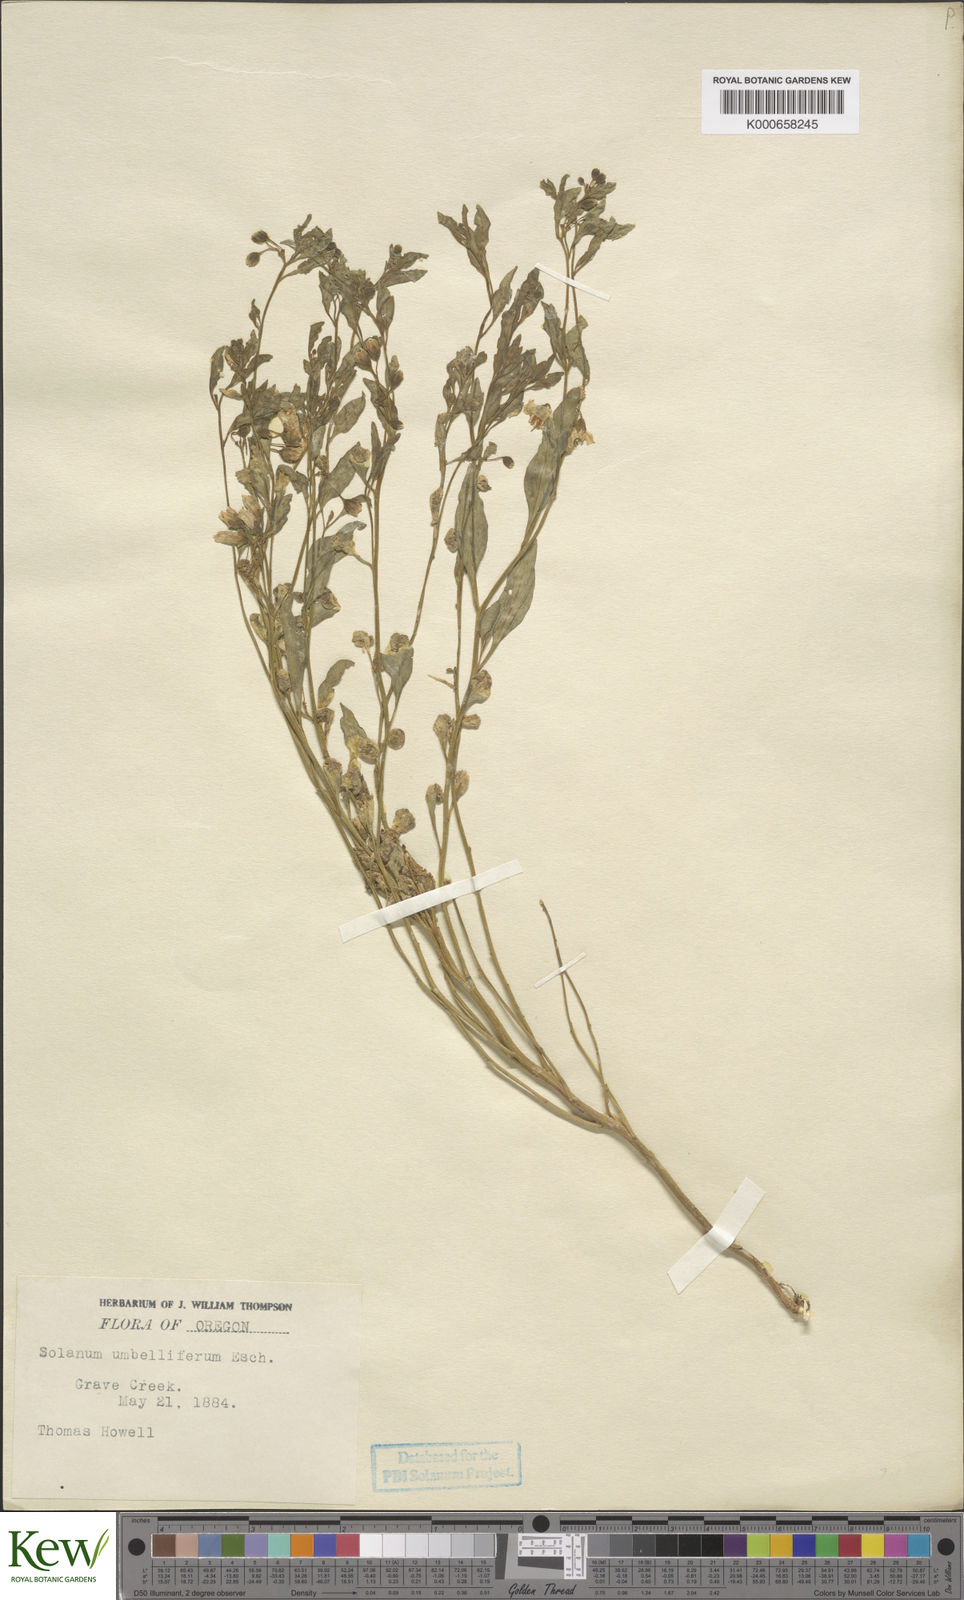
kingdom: Plantae
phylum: Tracheophyta
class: Magnoliopsida
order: Solanales
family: Solanaceae
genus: Solanum
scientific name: Solanum umbelliferum
